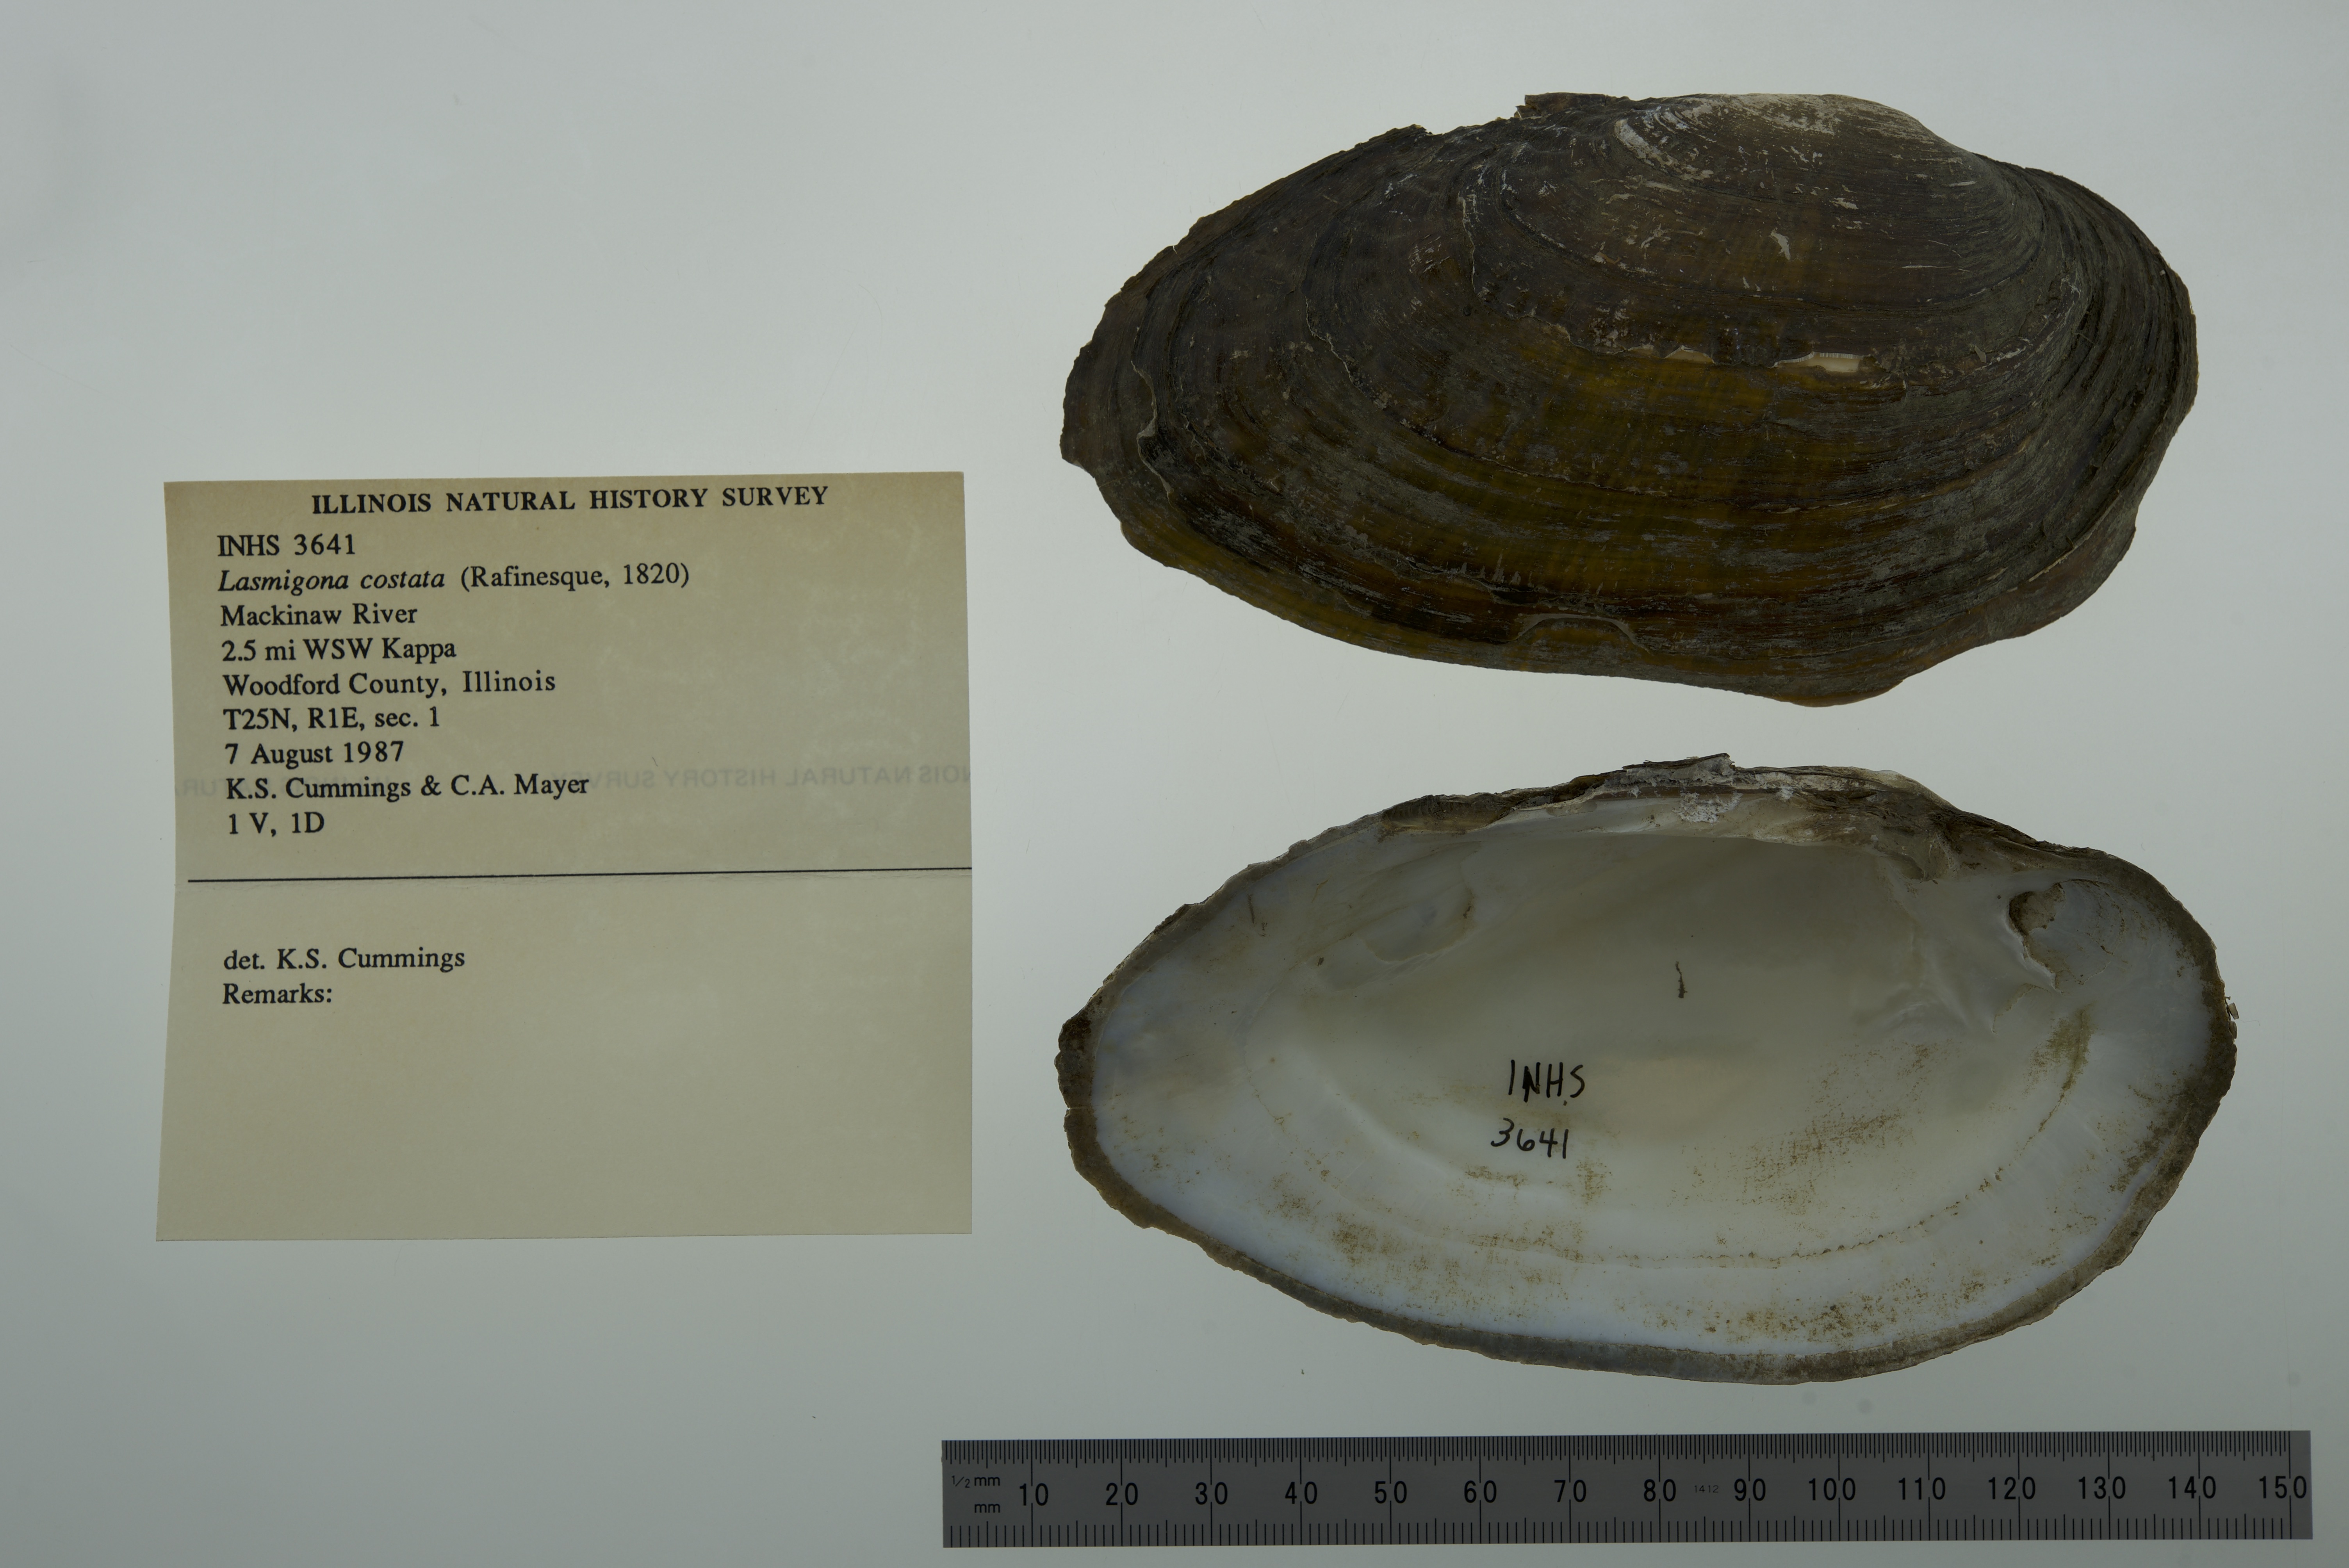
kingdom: Animalia
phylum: Mollusca
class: Bivalvia
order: Unionida
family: Unionidae
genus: Lasmigona
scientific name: Lasmigona costata
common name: Flutedshell
